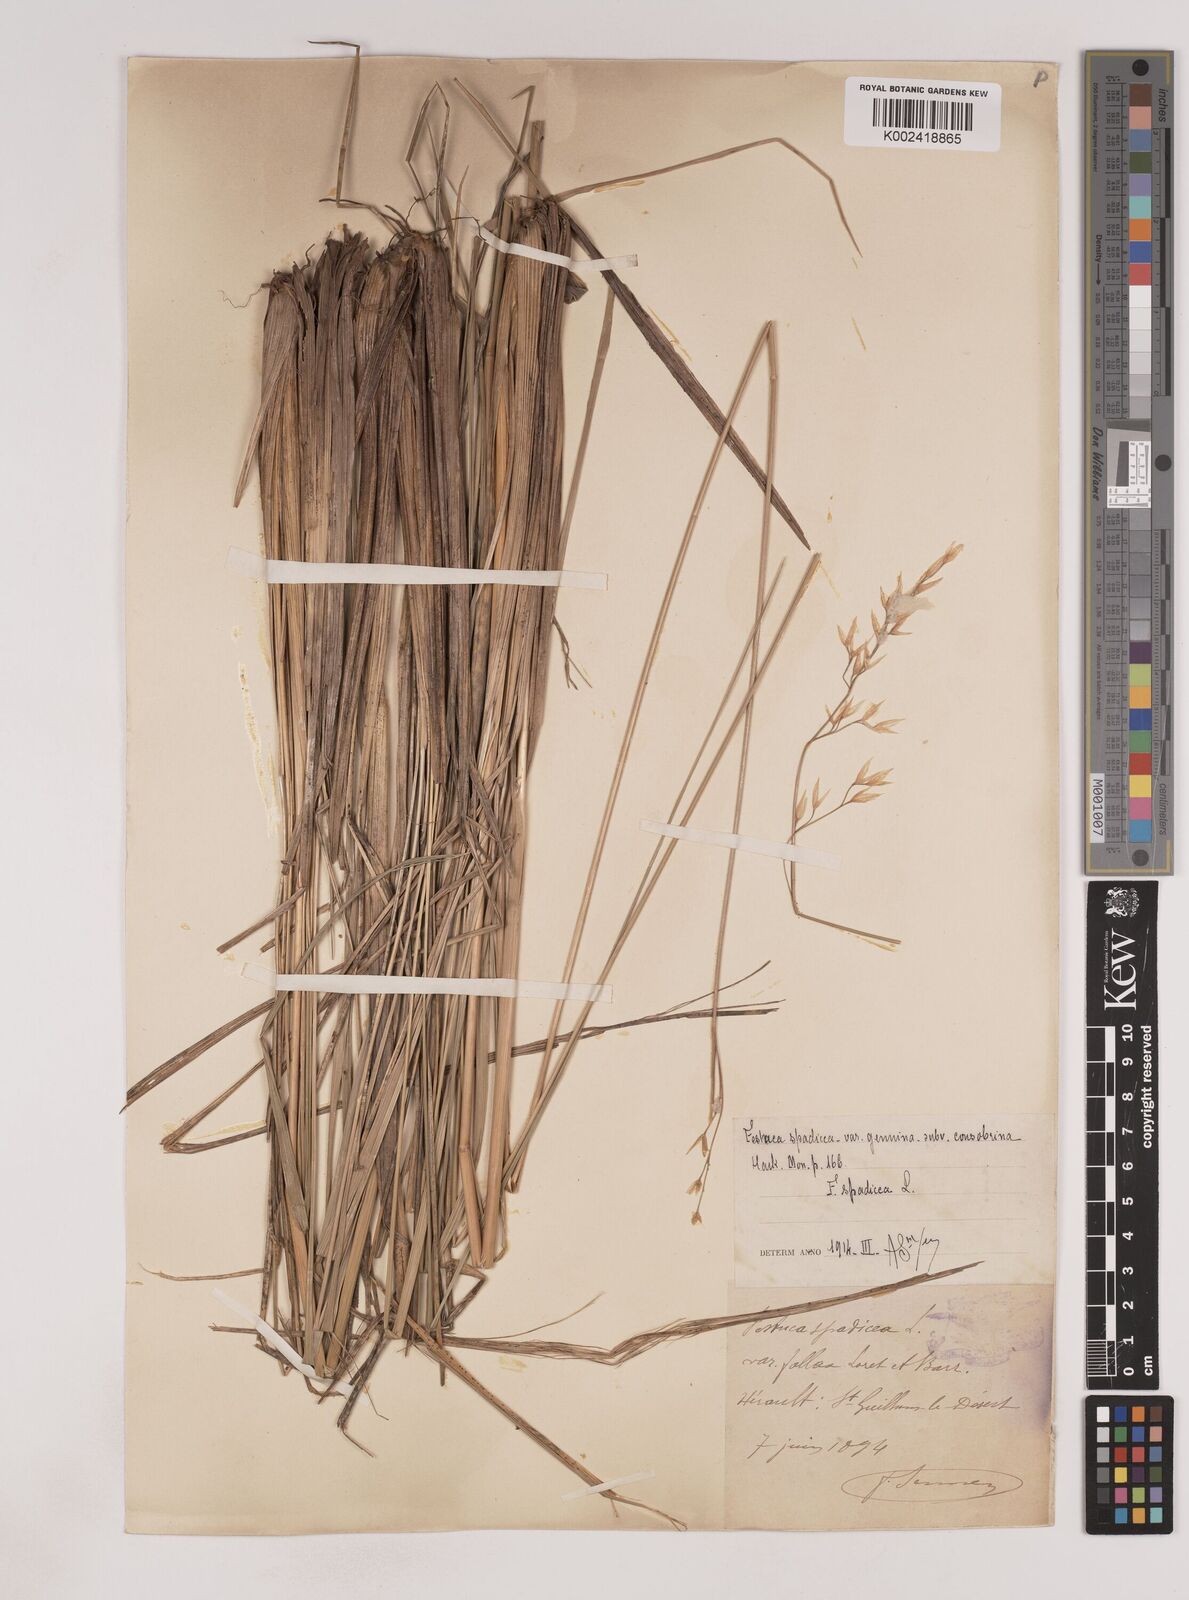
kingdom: Plantae
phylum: Tracheophyta
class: Liliopsida
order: Poales
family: Poaceae
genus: Patzkea
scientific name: Patzkea paniculata
